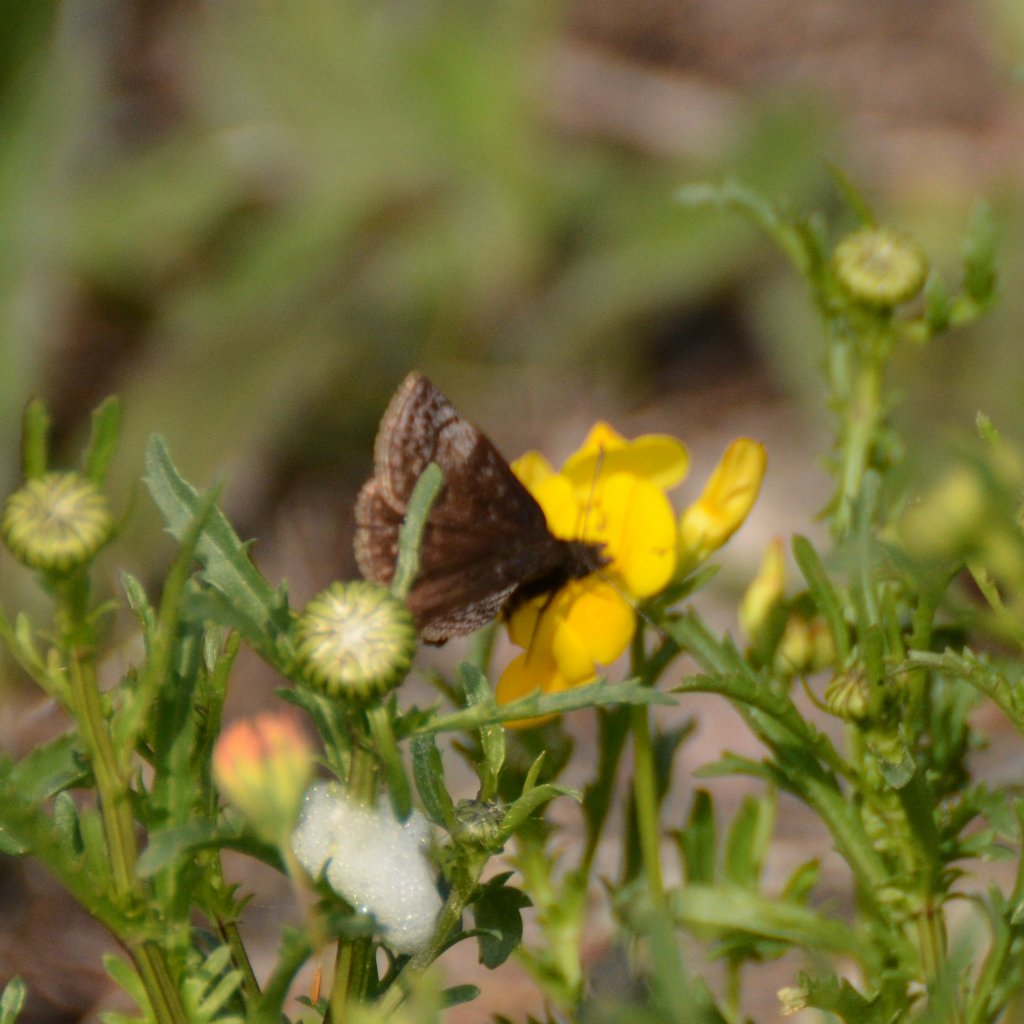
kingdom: Animalia
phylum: Arthropoda
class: Insecta
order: Lepidoptera
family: Hesperiidae
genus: Erynnis
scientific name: Erynnis icelus
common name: Dreamy Duskywing
